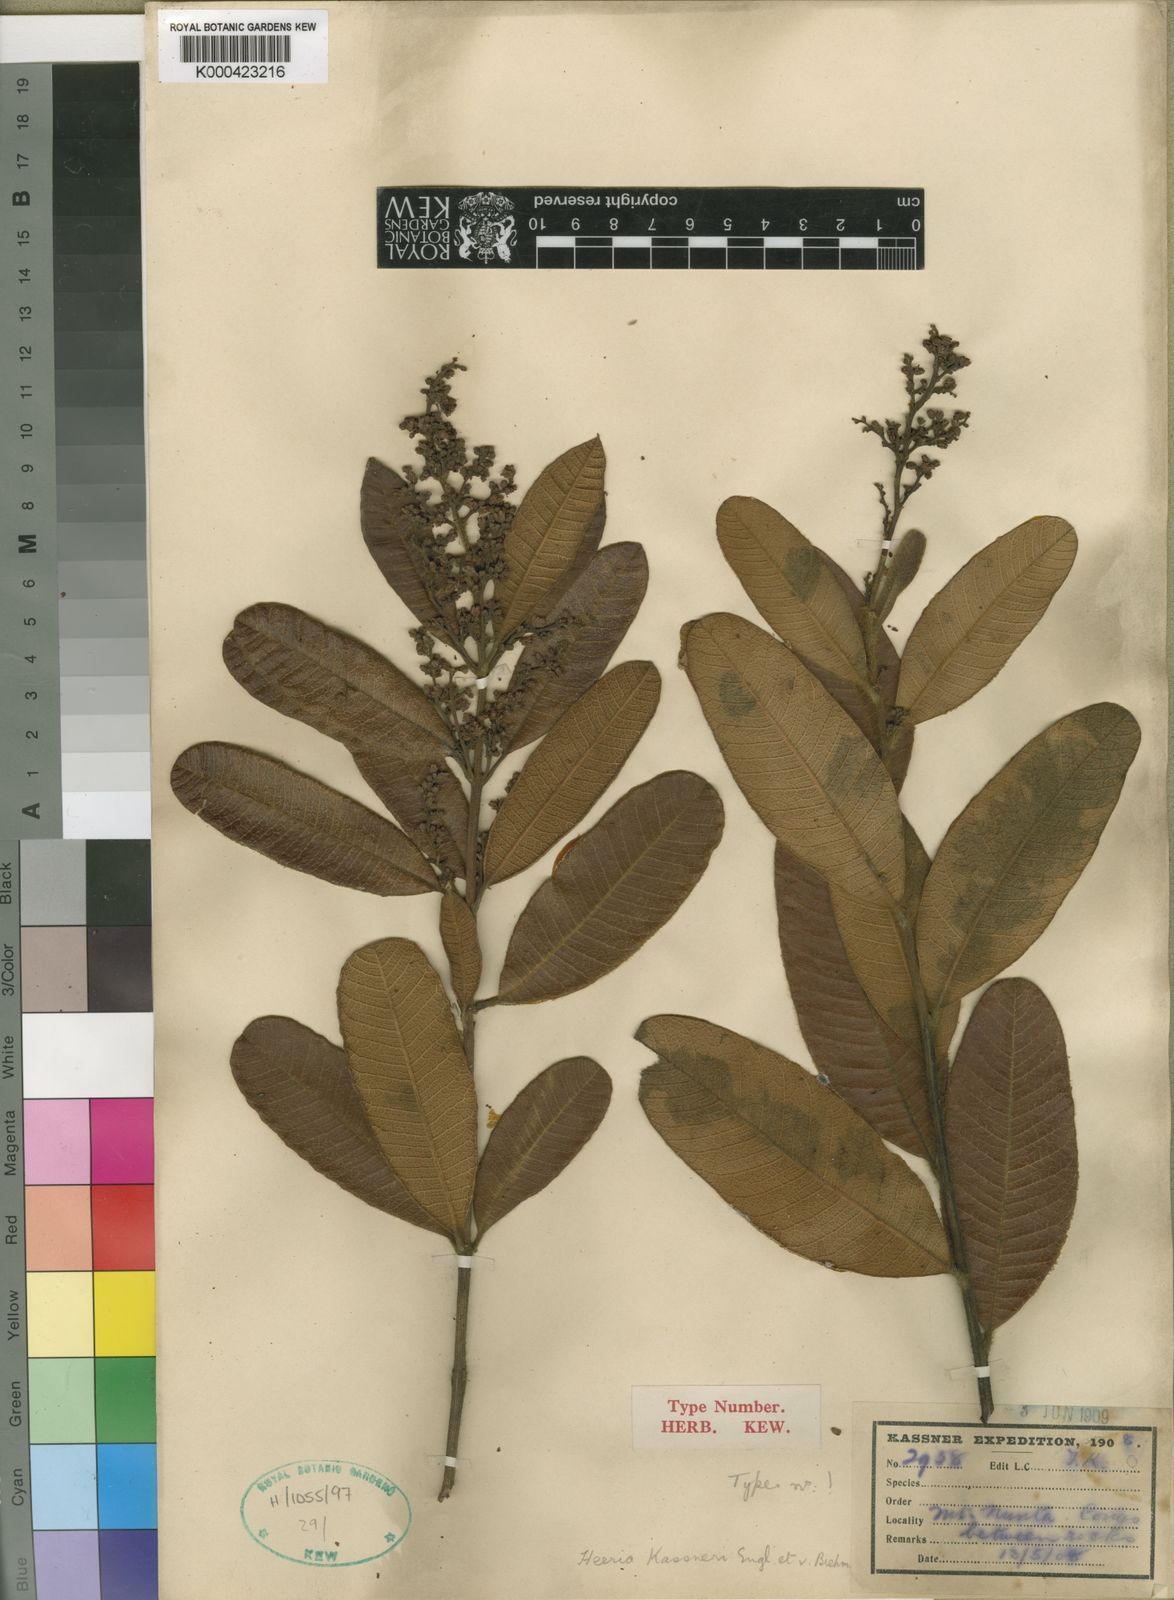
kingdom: Plantae
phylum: Tracheophyta
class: Magnoliopsida
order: Sapindales
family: Anacardiaceae
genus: Ozoroa
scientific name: Ozoroa kassneri
